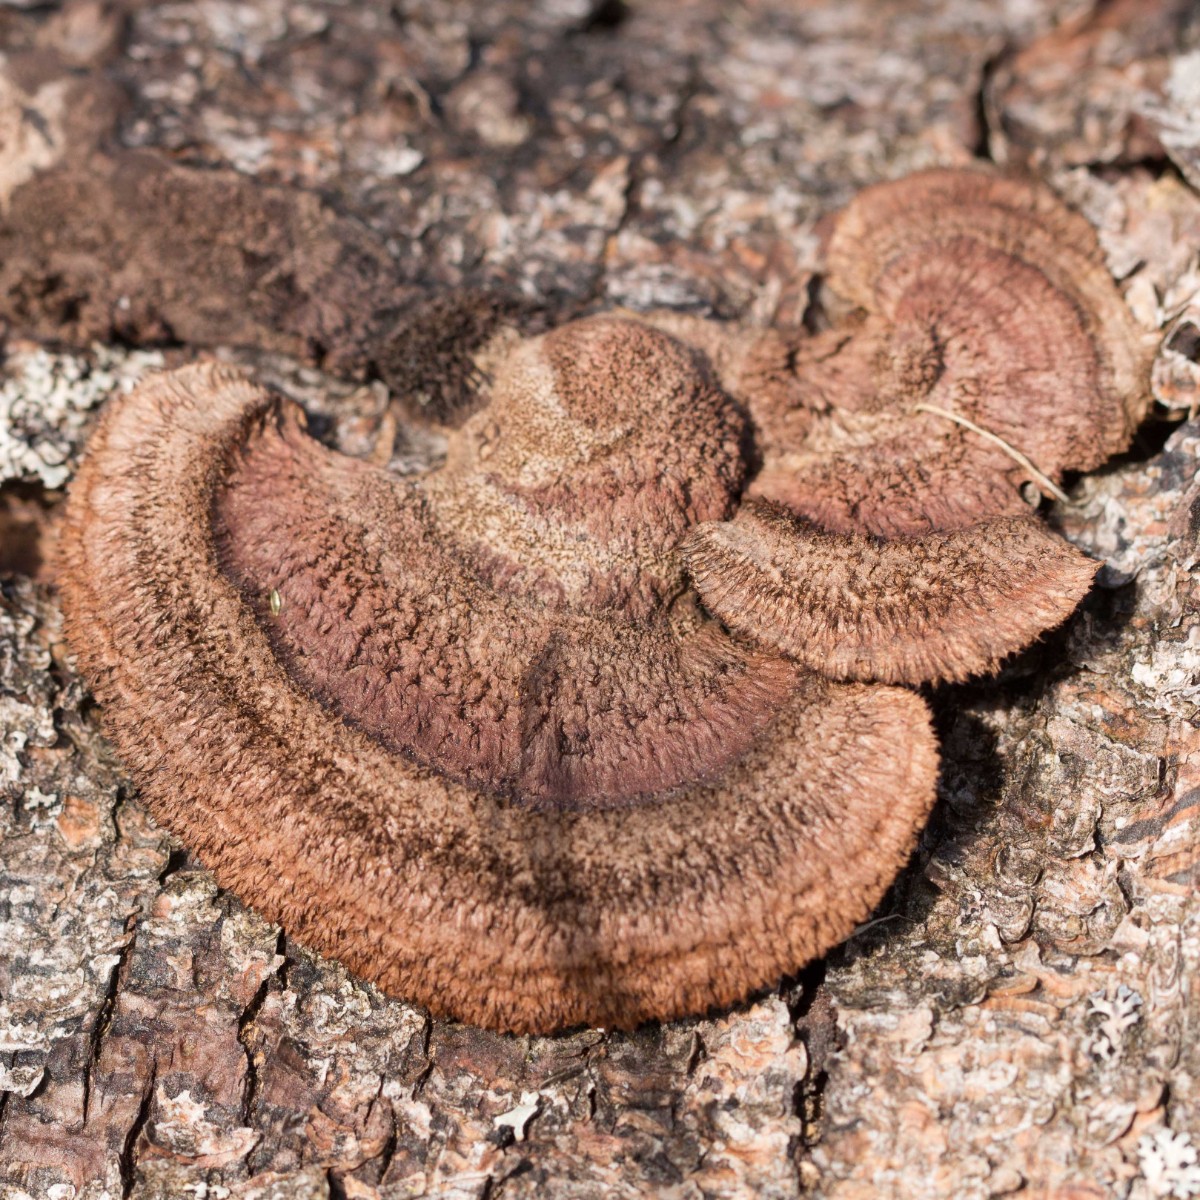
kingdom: Fungi
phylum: Basidiomycota
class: Agaricomycetes
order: Gloeophyllales
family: Gloeophyllaceae
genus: Gloeophyllum
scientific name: Gloeophyllum sepiarium
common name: fyrre-korkhat
